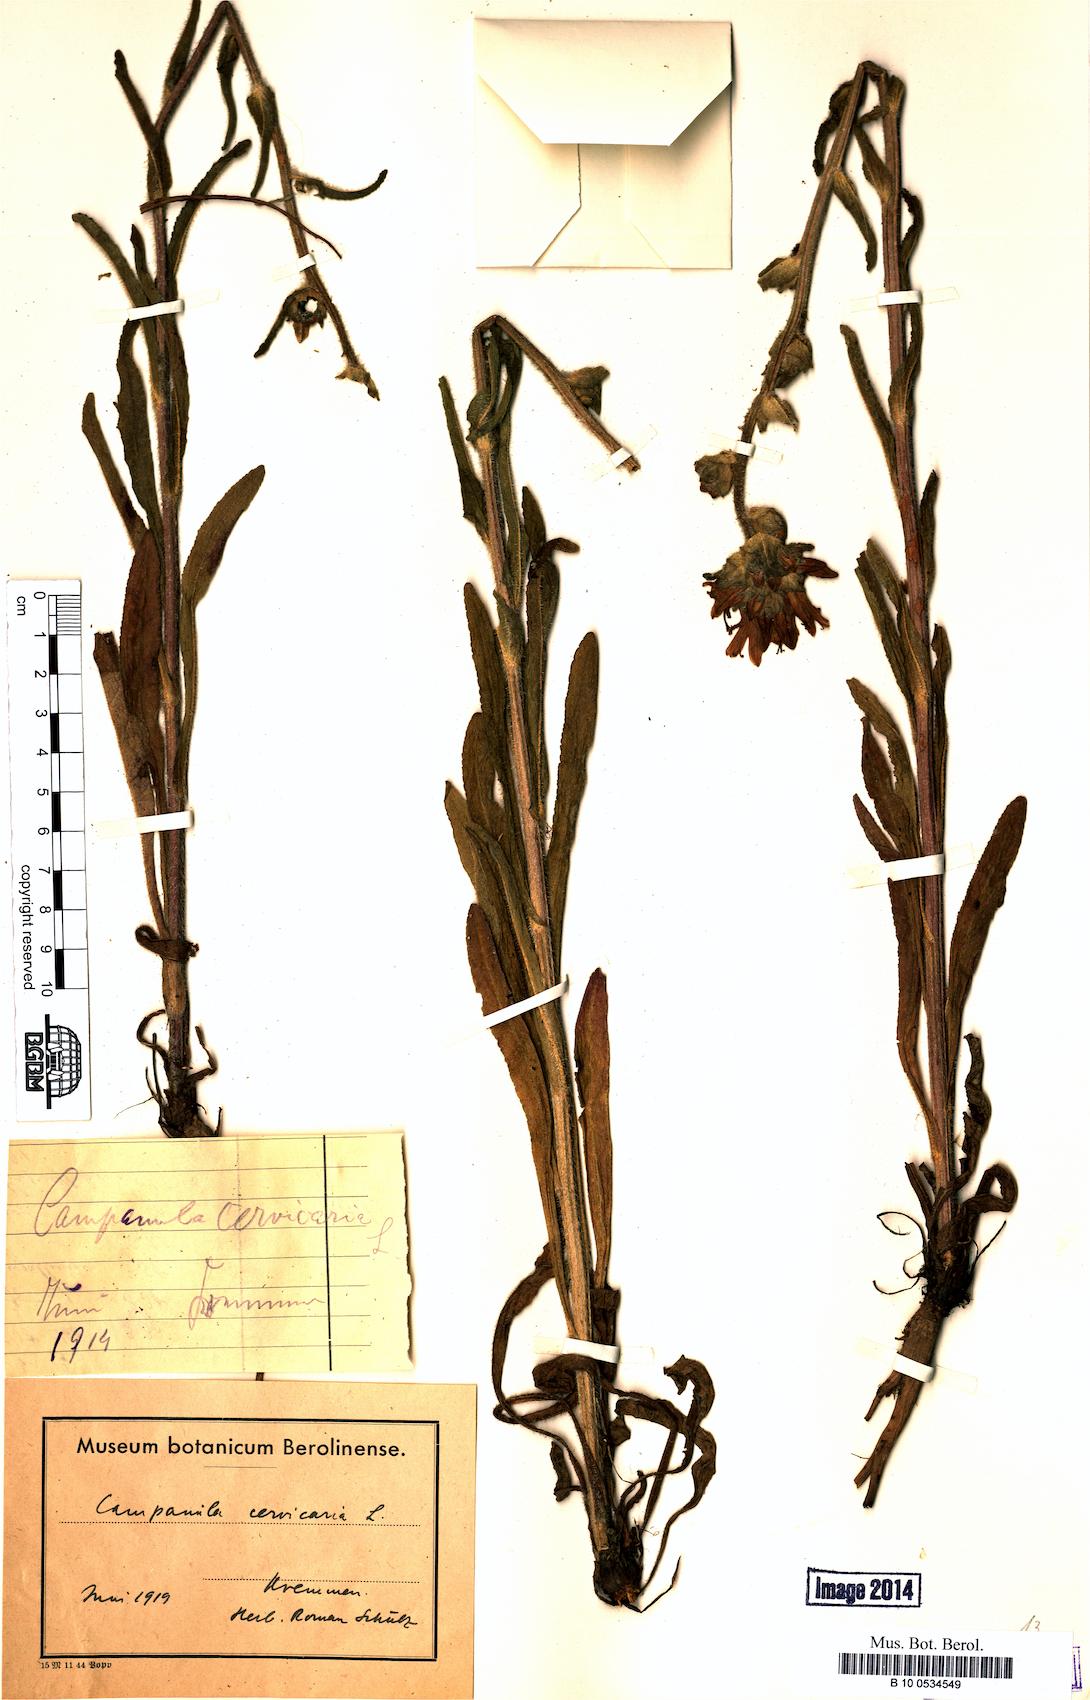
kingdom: Plantae
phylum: Tracheophyta
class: Magnoliopsida
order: Asterales
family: Campanulaceae
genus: Campanula
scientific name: Campanula cervicaria
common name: Bristly bellflower
